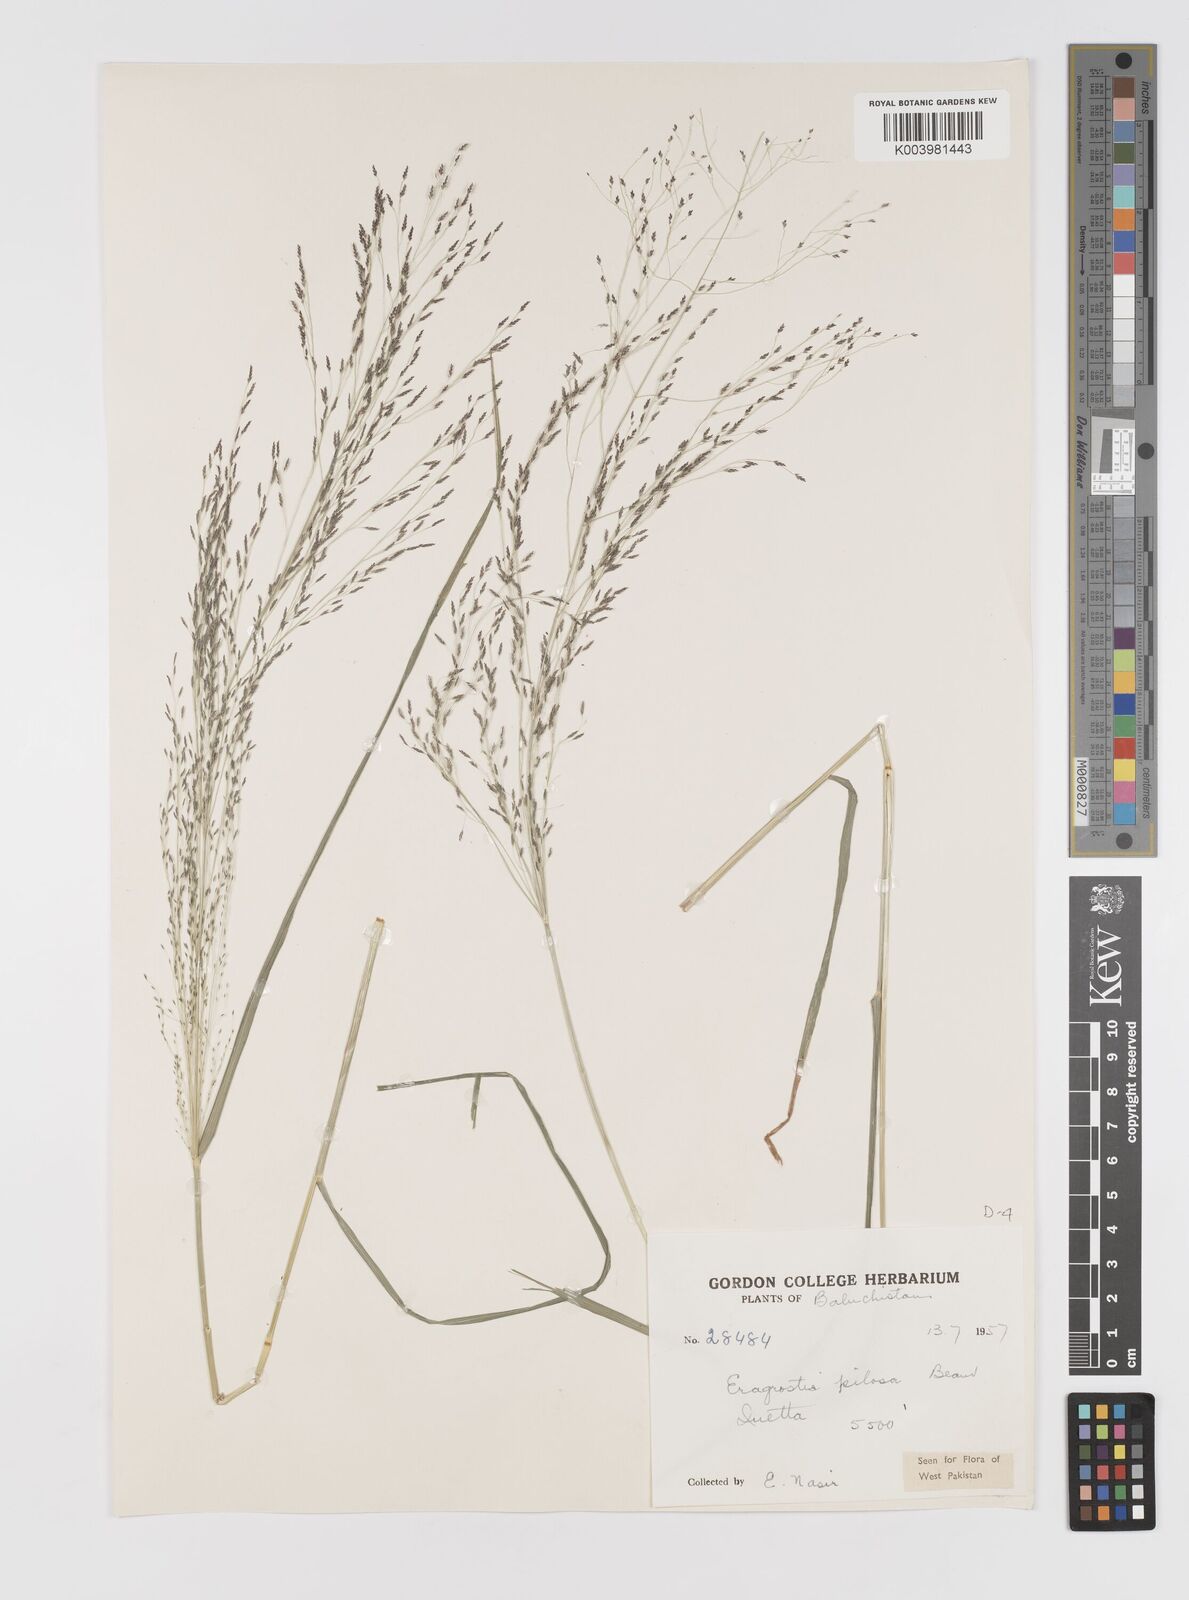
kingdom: Plantae
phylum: Tracheophyta
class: Liliopsida
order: Poales
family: Poaceae
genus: Eragrostis
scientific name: Eragrostis pilosa
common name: Indian lovegrass
